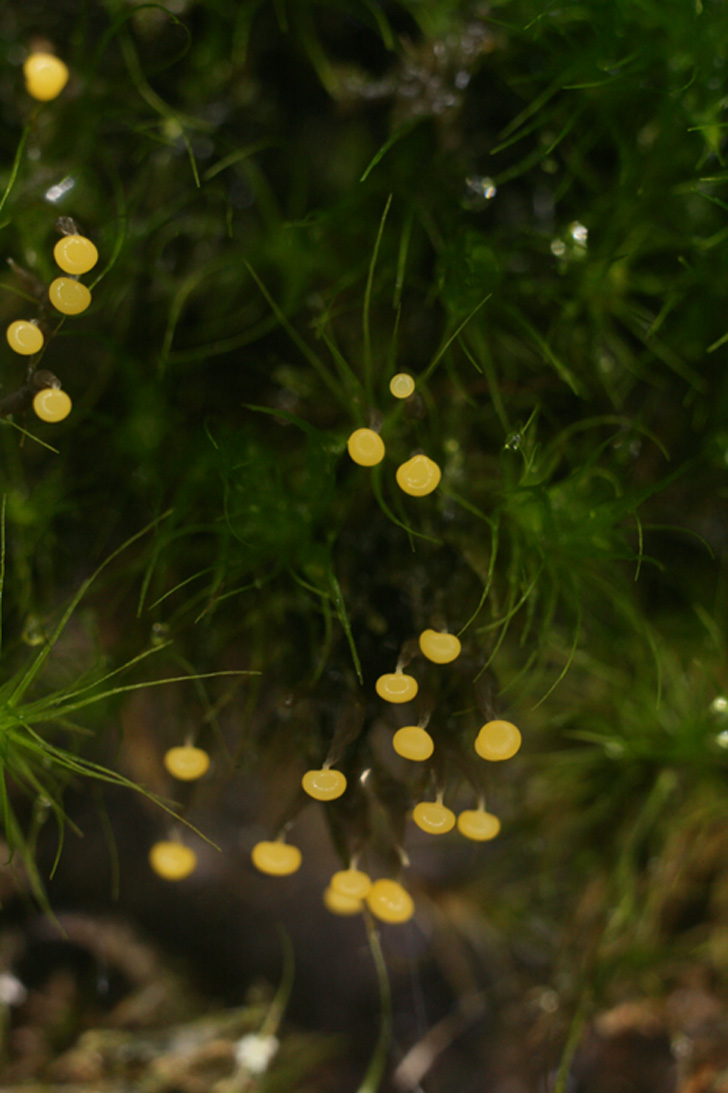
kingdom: Protozoa
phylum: Mycetozoa
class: Myxomycetes
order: Physarales
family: Physaraceae
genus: Physarum
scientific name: Physarum album
